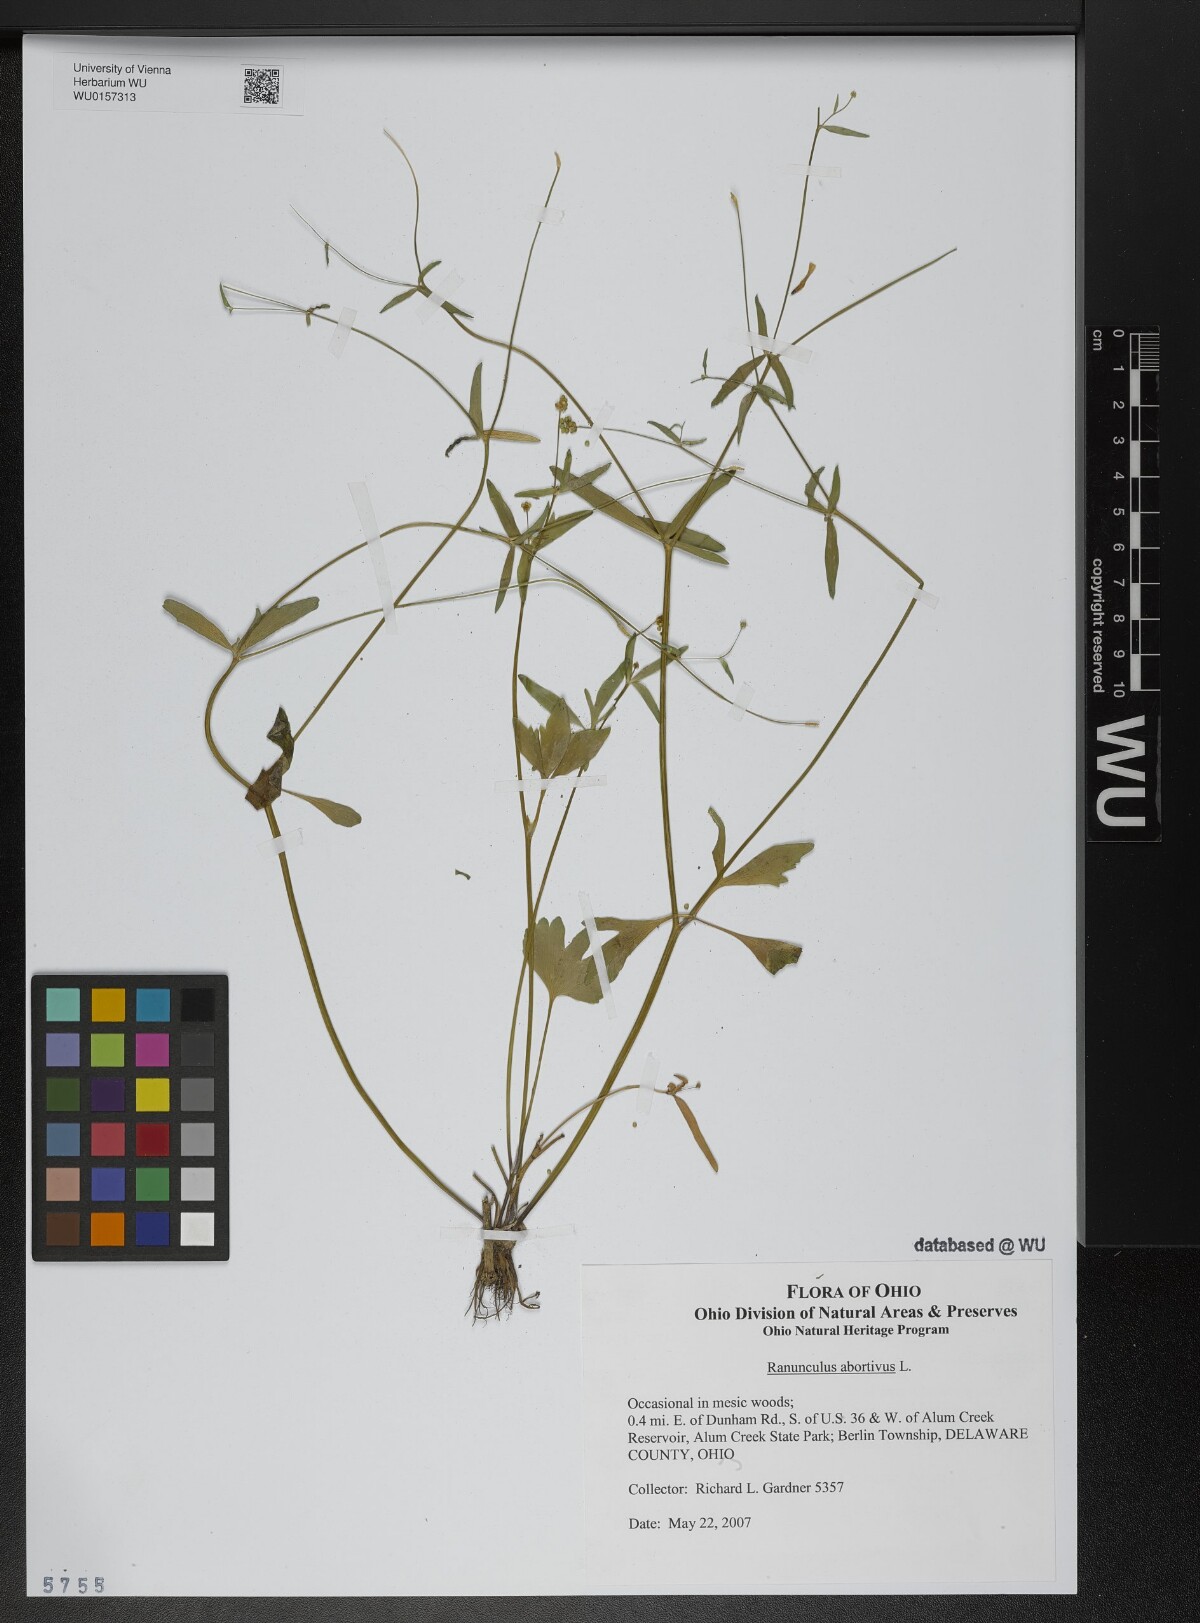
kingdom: Plantae
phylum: Tracheophyta
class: Magnoliopsida
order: Ranunculales
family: Ranunculaceae
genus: Ranunculus
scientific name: Ranunculus abortivus
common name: Early wood buttercup
